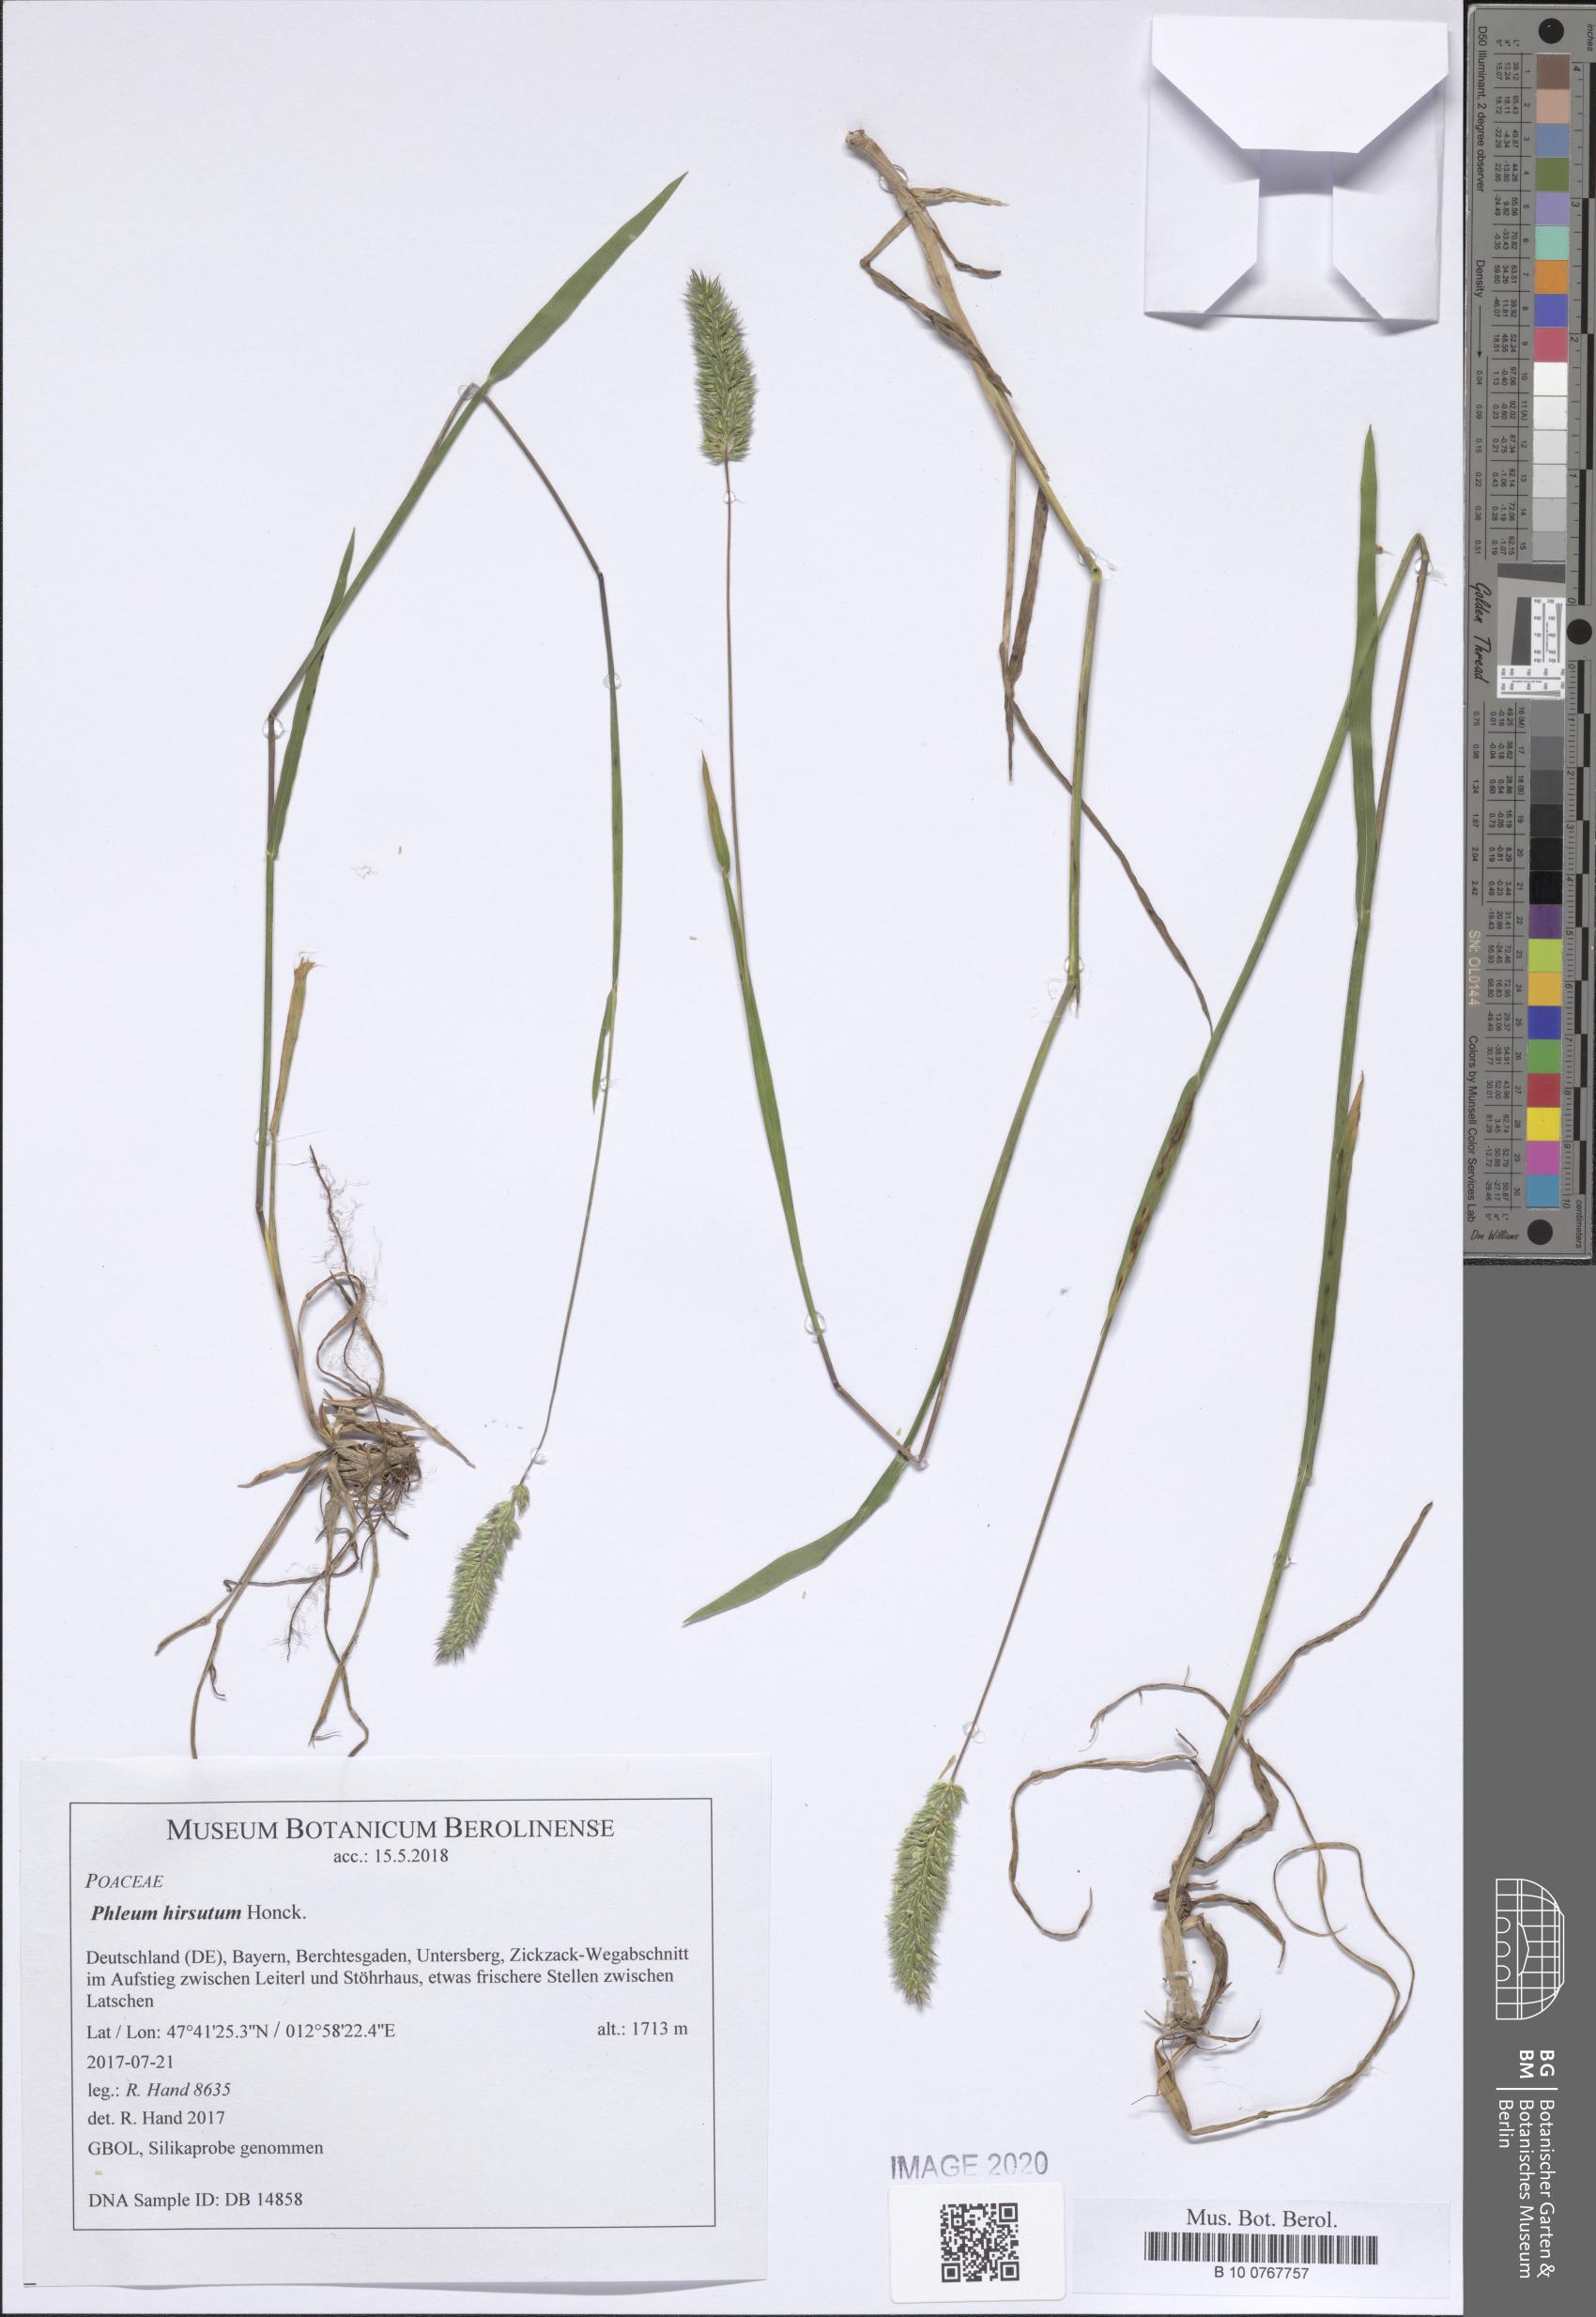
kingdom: Plantae
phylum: Tracheophyta
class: Liliopsida
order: Poales
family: Poaceae
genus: Phleum
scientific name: Phleum hirsutum
